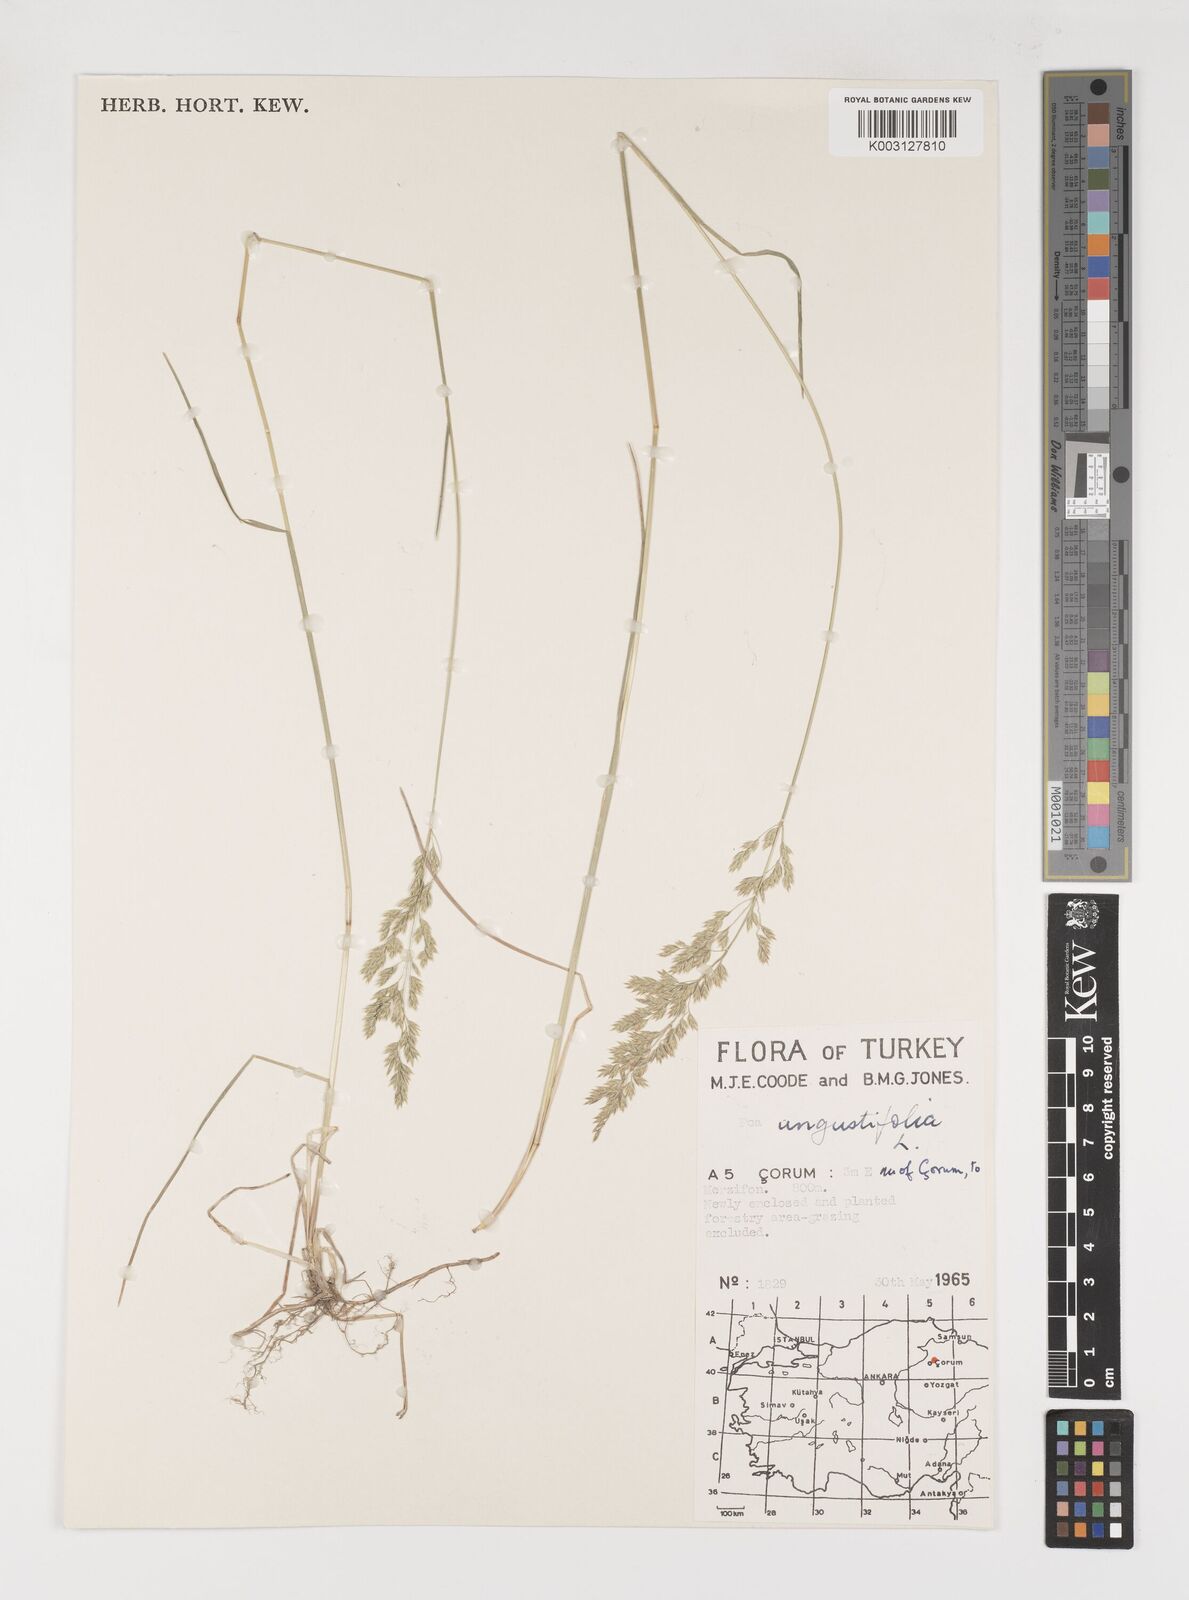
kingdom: Plantae
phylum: Tracheophyta
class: Liliopsida
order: Poales
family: Poaceae
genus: Poa
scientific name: Poa angustifolia
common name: Narrow-leaved meadow-grass
